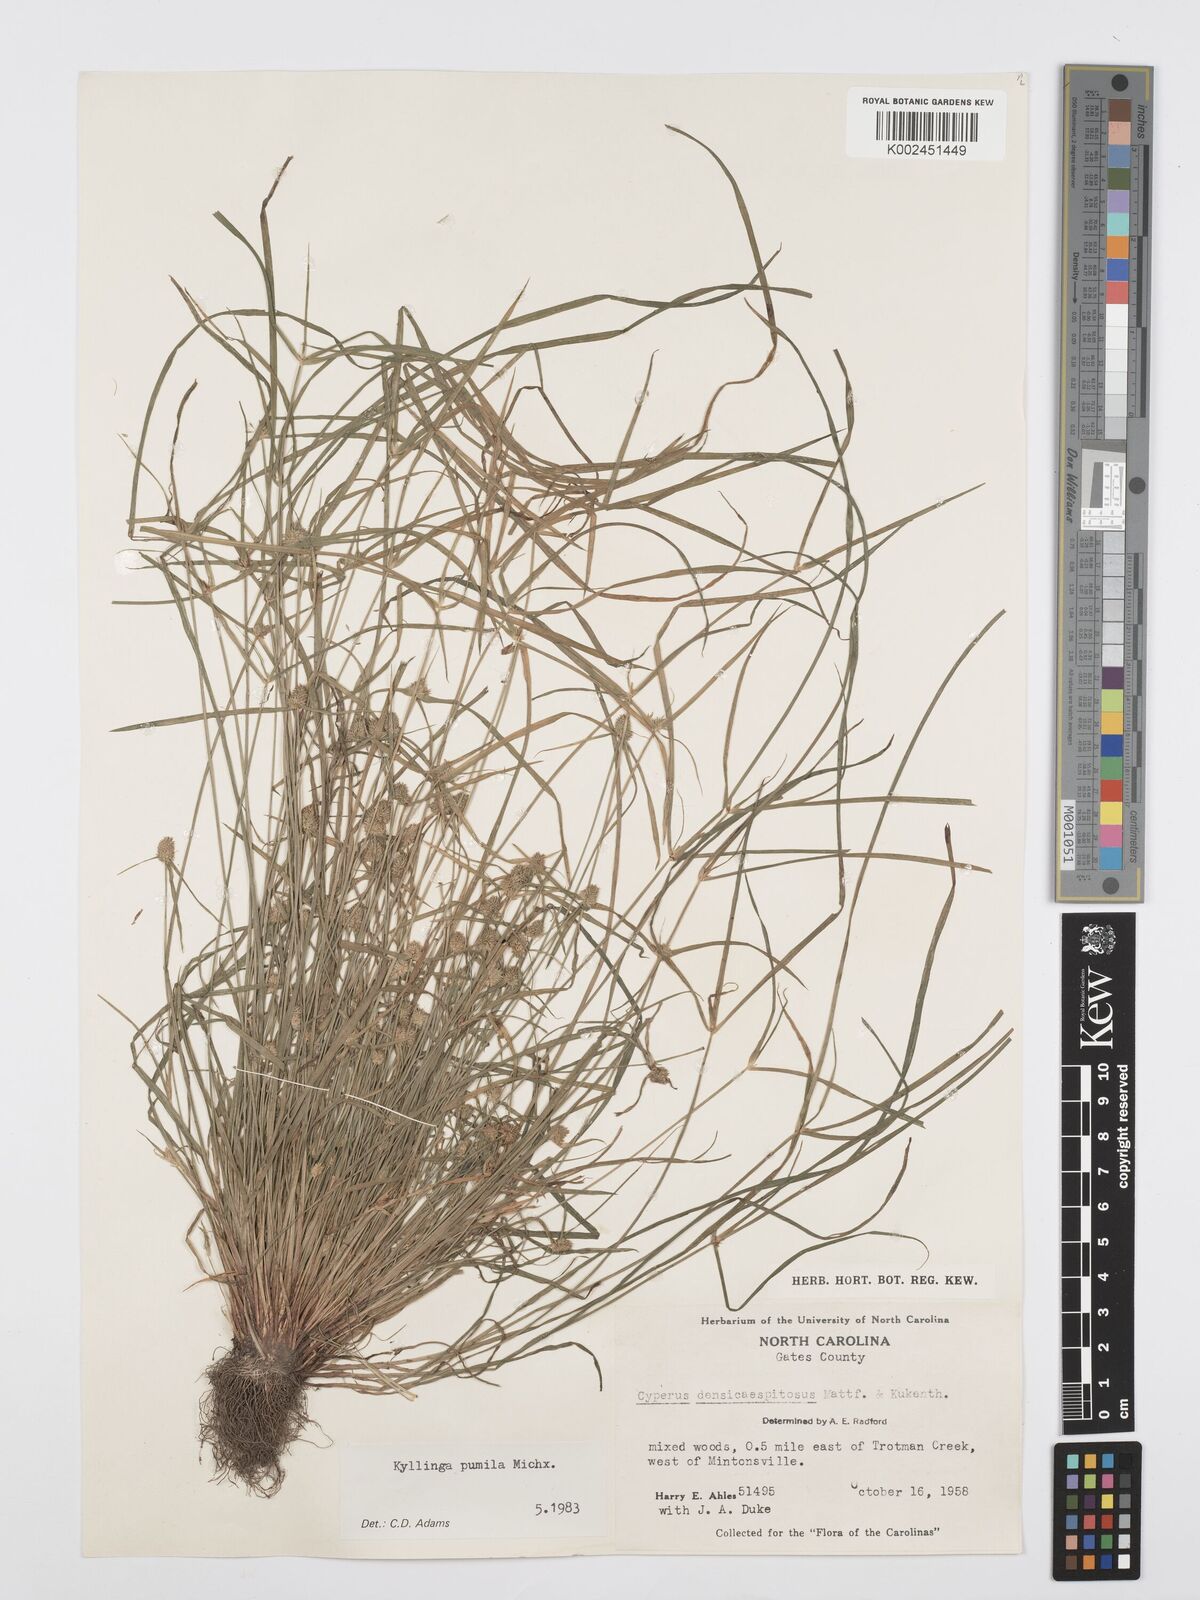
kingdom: Plantae
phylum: Tracheophyta
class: Liliopsida
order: Poales
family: Cyperaceae
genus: Cyperus
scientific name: Cyperus
